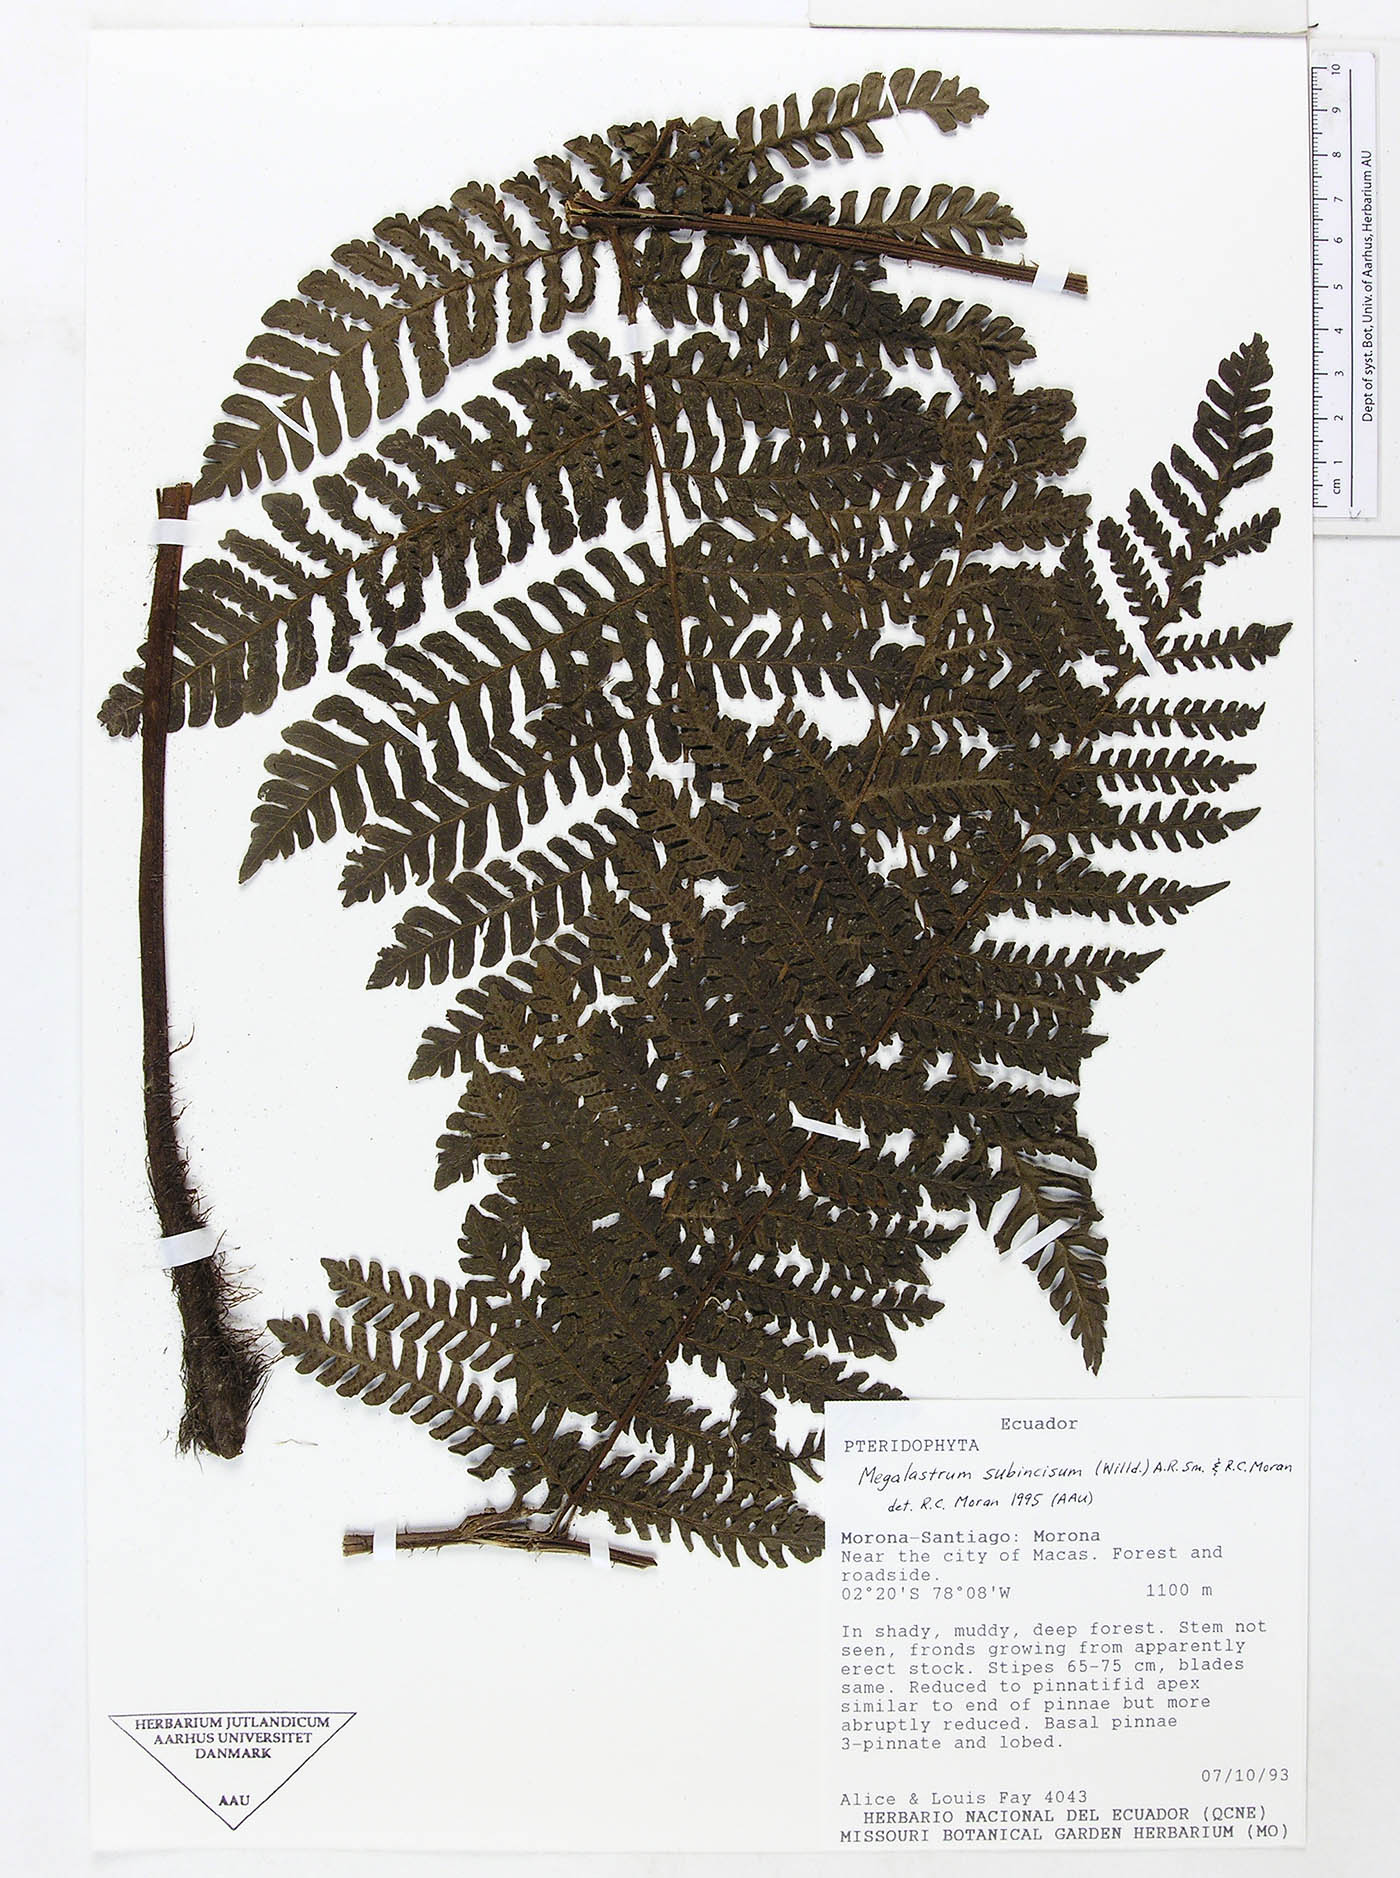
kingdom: Plantae
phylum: Tracheophyta
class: Polypodiopsida
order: Polypodiales
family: Dryopteridaceae
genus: Megalastrum
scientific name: Megalastrum miscellum
